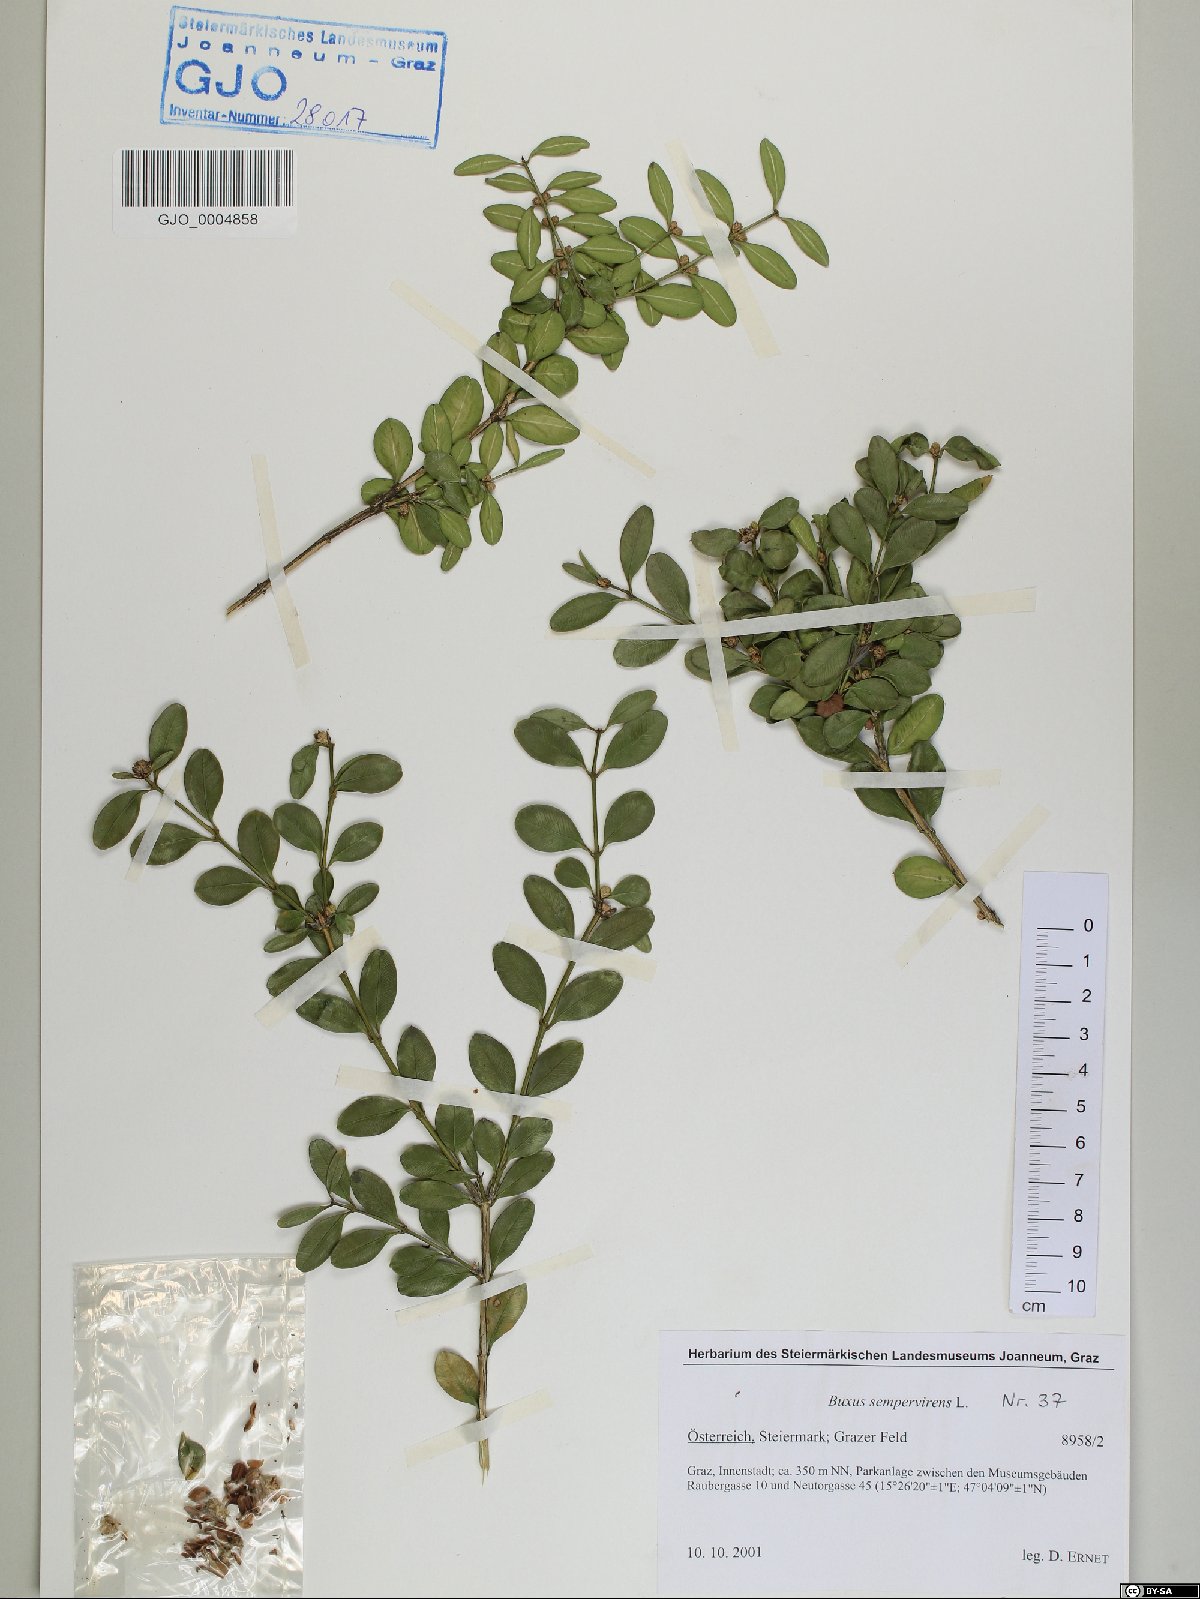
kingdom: Plantae
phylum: Tracheophyta
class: Magnoliopsida
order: Buxales
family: Buxaceae
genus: Buxus
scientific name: Buxus sempervirens
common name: Box
